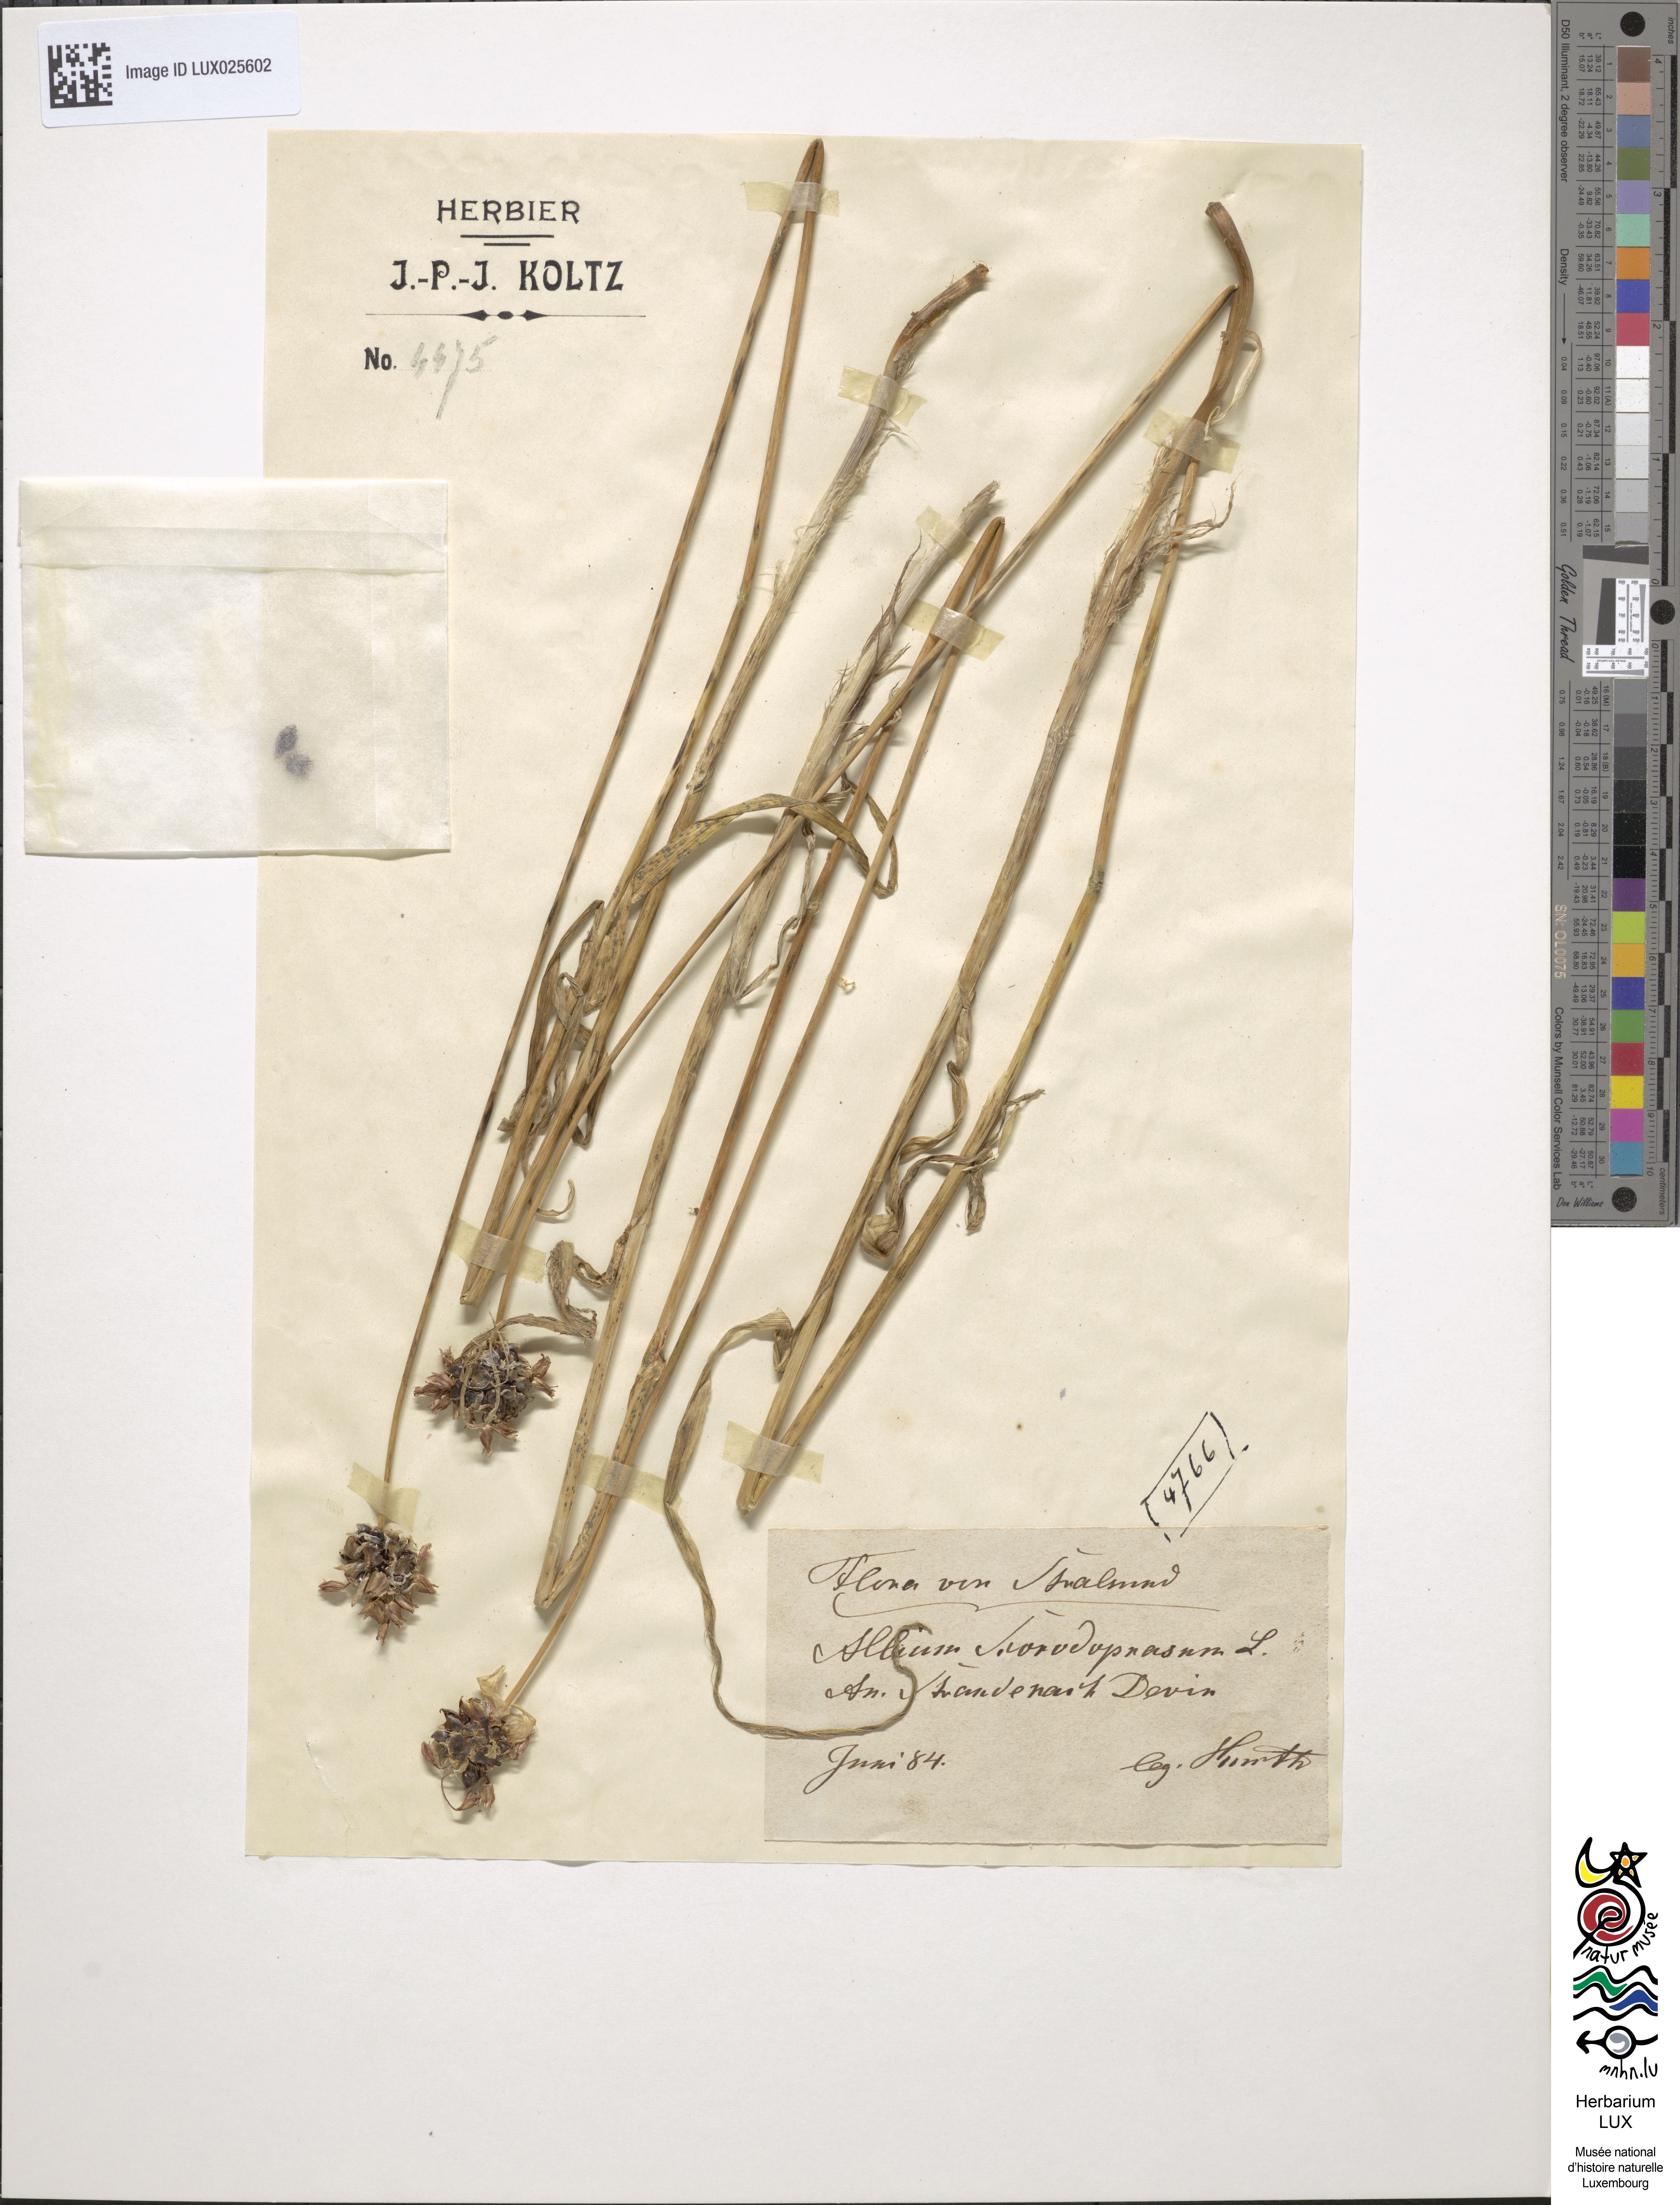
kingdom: Plantae
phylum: Tracheophyta
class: Liliopsida
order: Asparagales
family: Amaryllidaceae
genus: Allium
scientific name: Allium scorodoprasum
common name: Sand leek
